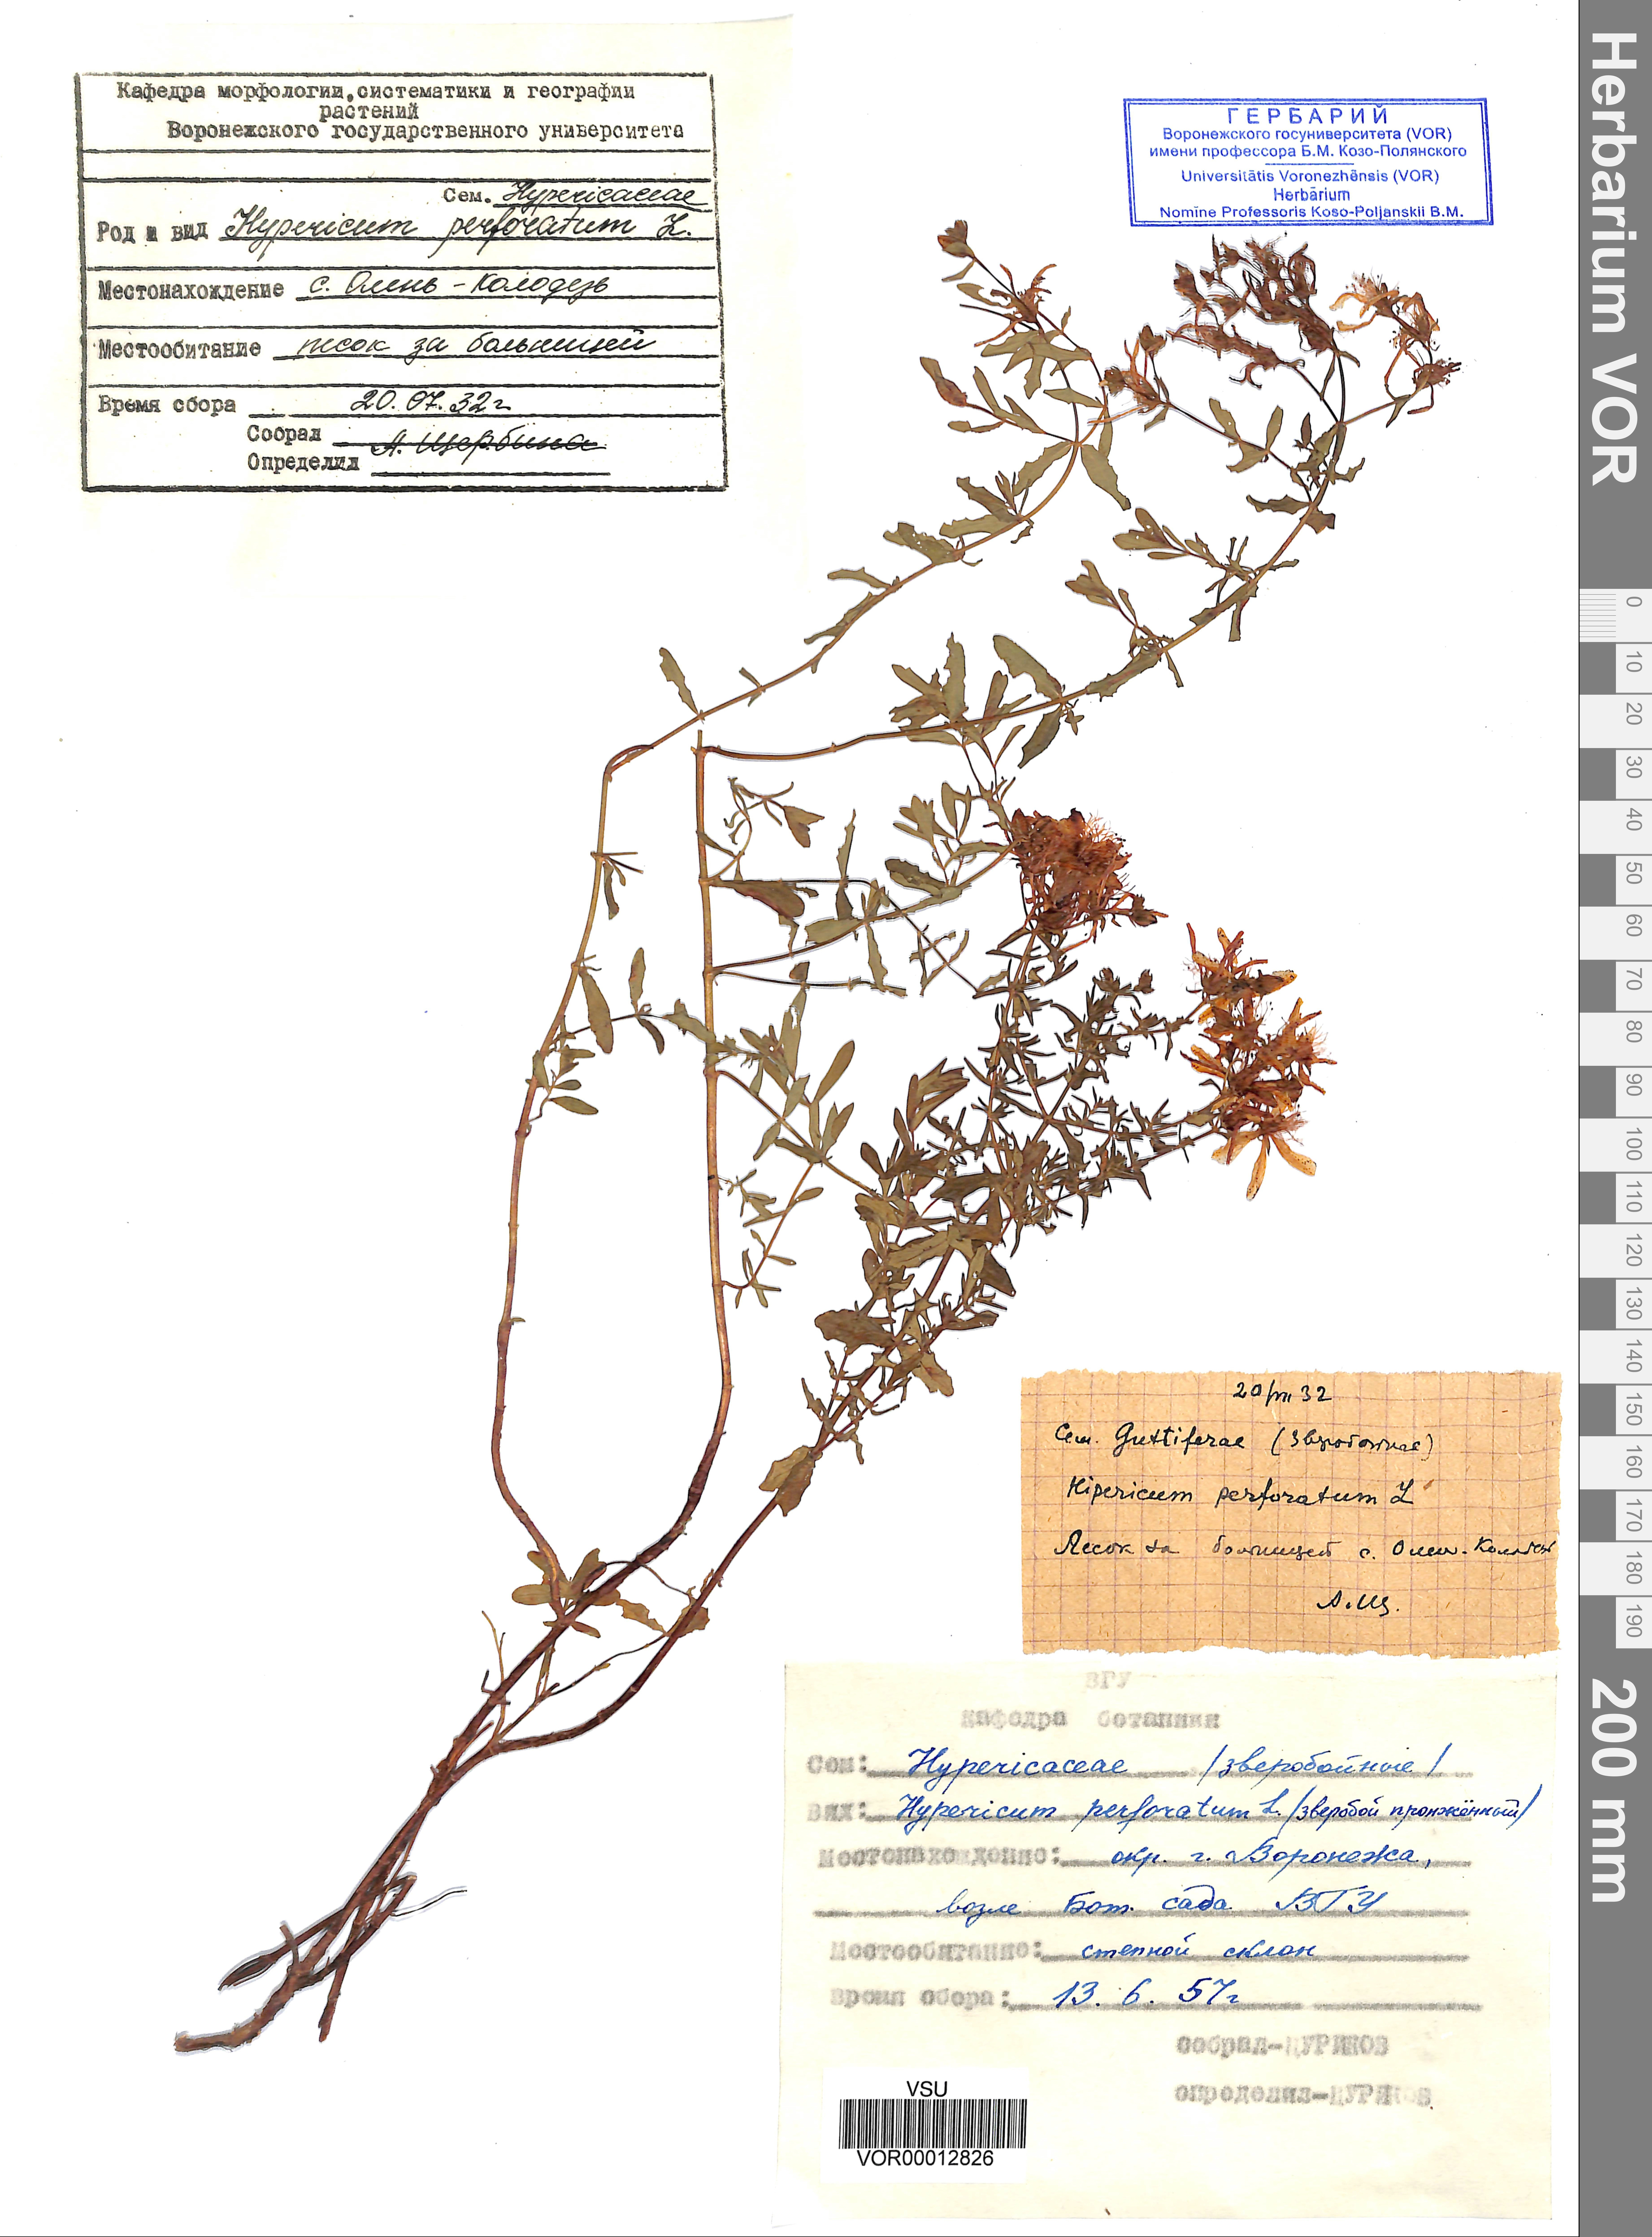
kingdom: Plantae
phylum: Tracheophyta
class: Magnoliopsida
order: Malpighiales
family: Hypericaceae
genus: Hypericum
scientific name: Hypericum perforatum
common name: Common st. johnswort
